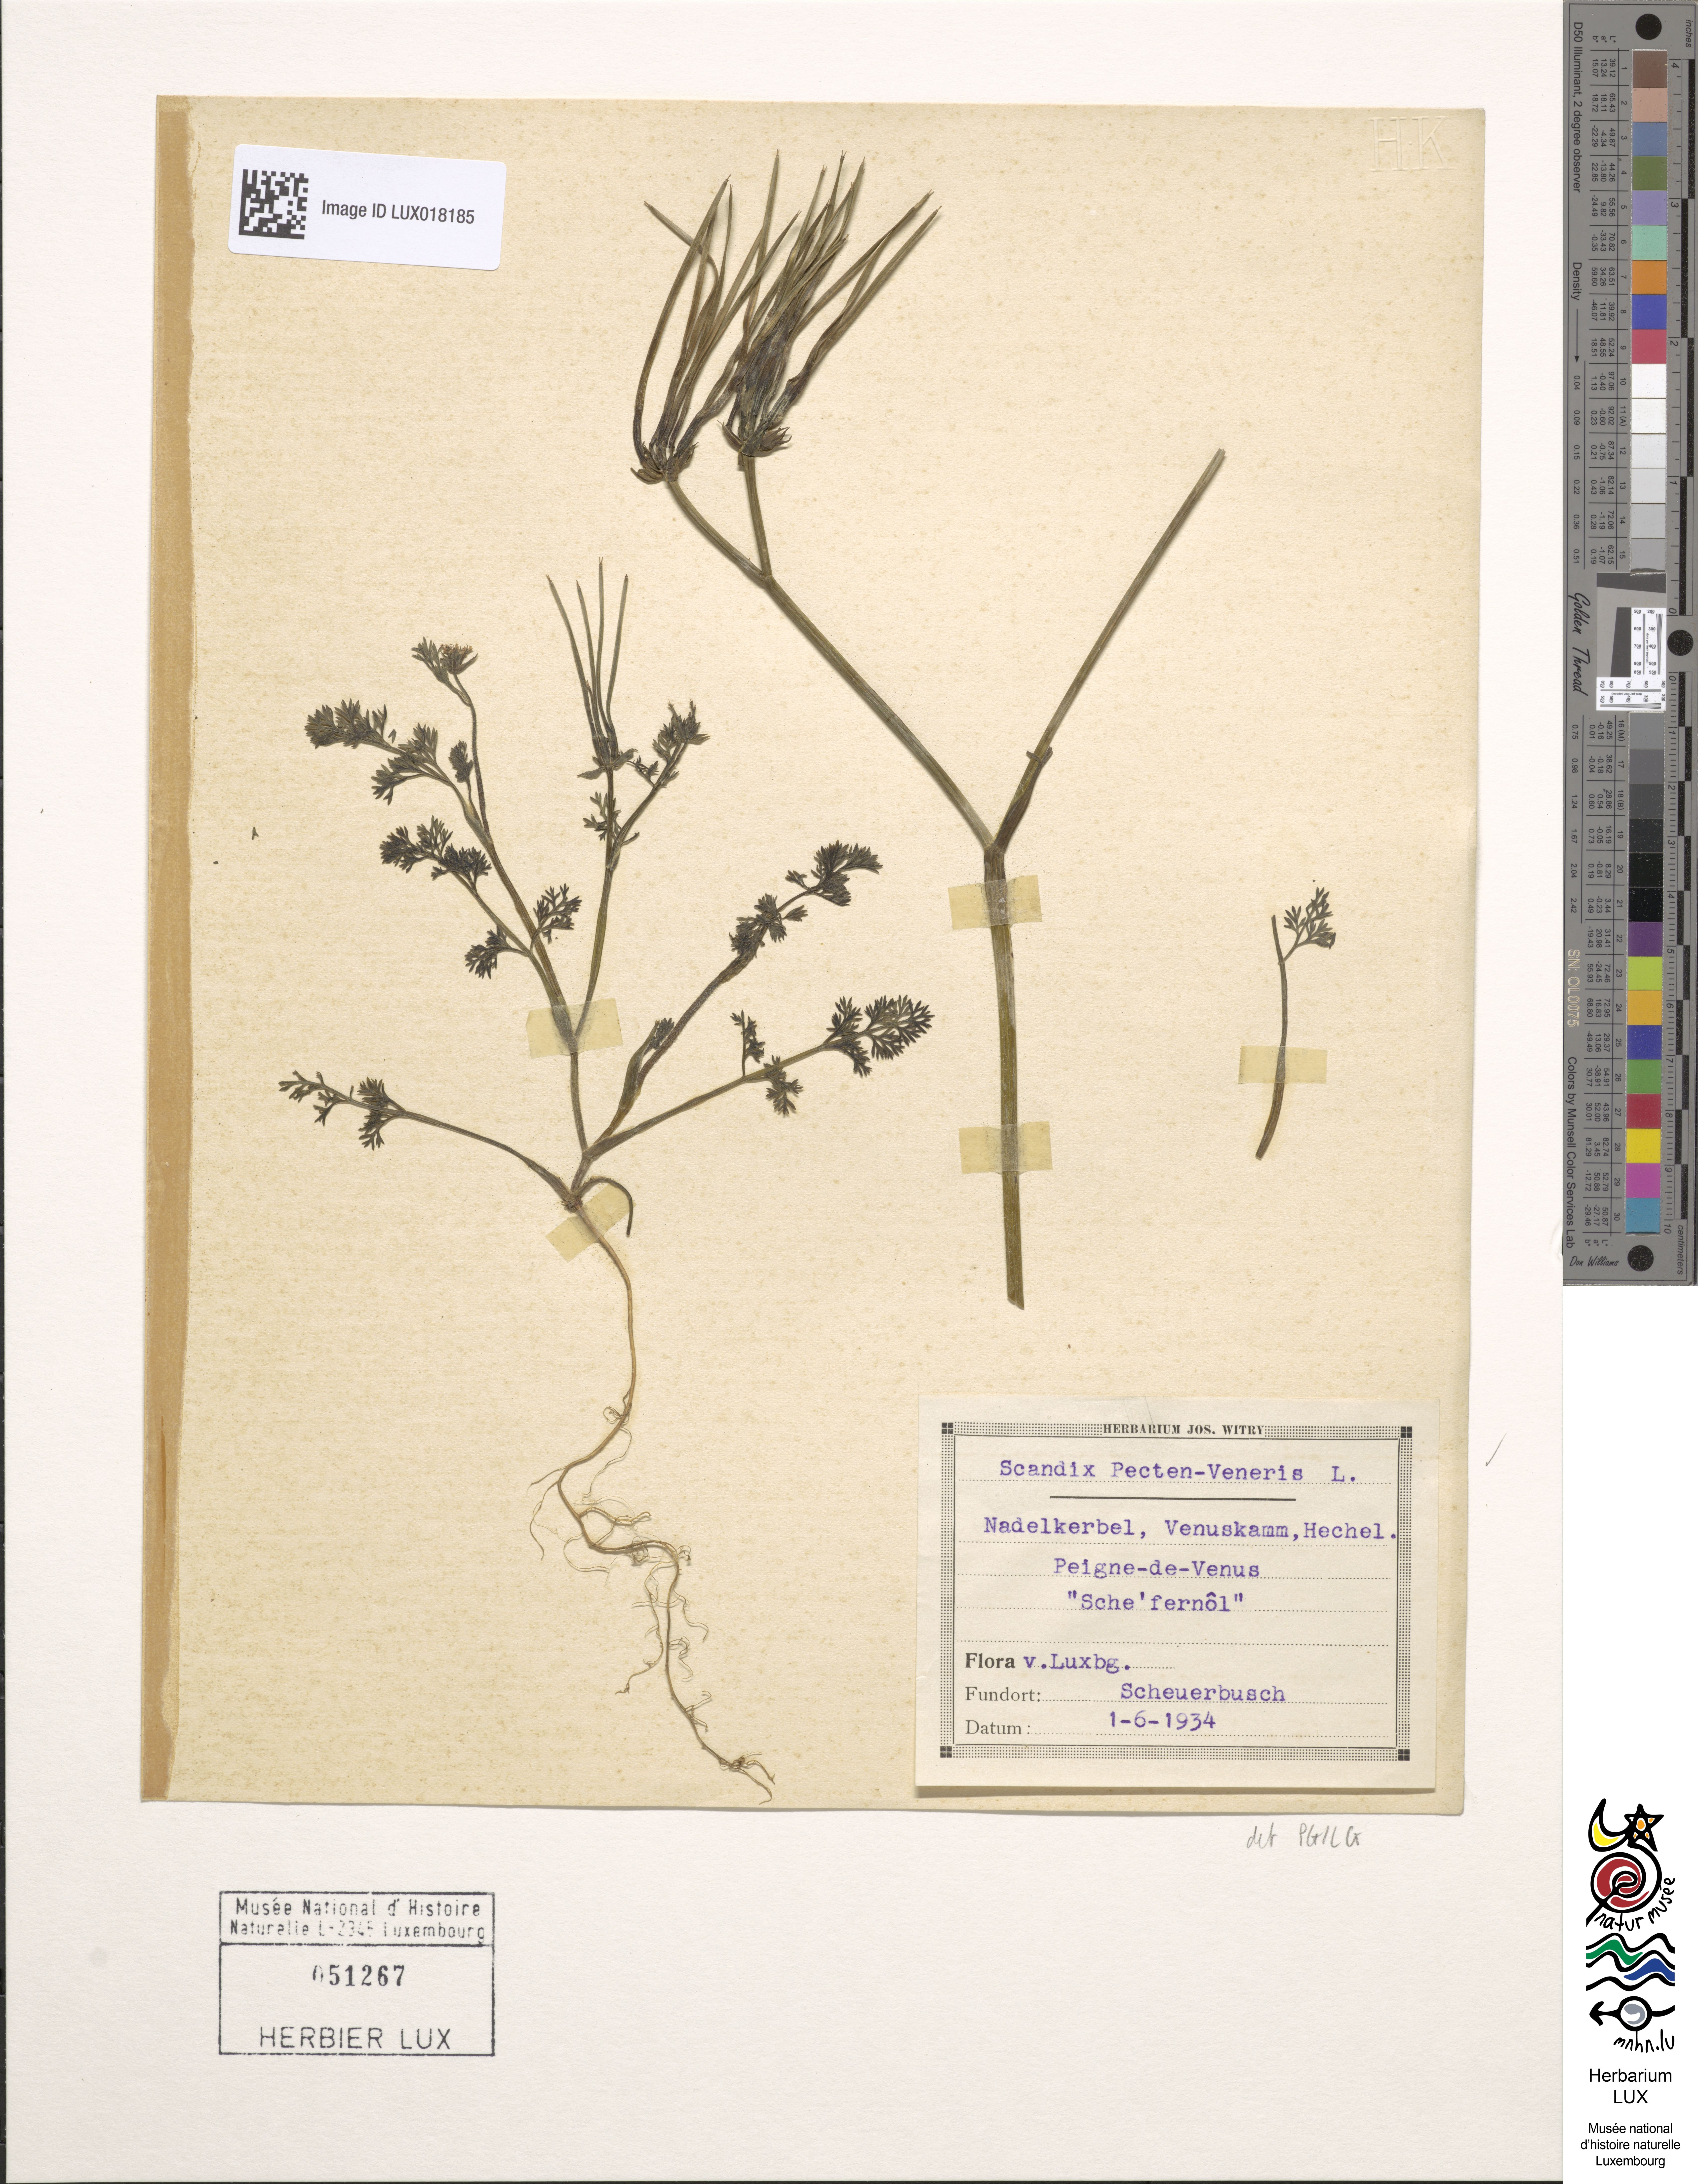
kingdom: Plantae
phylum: Tracheophyta
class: Magnoliopsida
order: Apiales
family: Apiaceae
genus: Scandix
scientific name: Scandix pecten-veneris
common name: Shepherd's-needle
